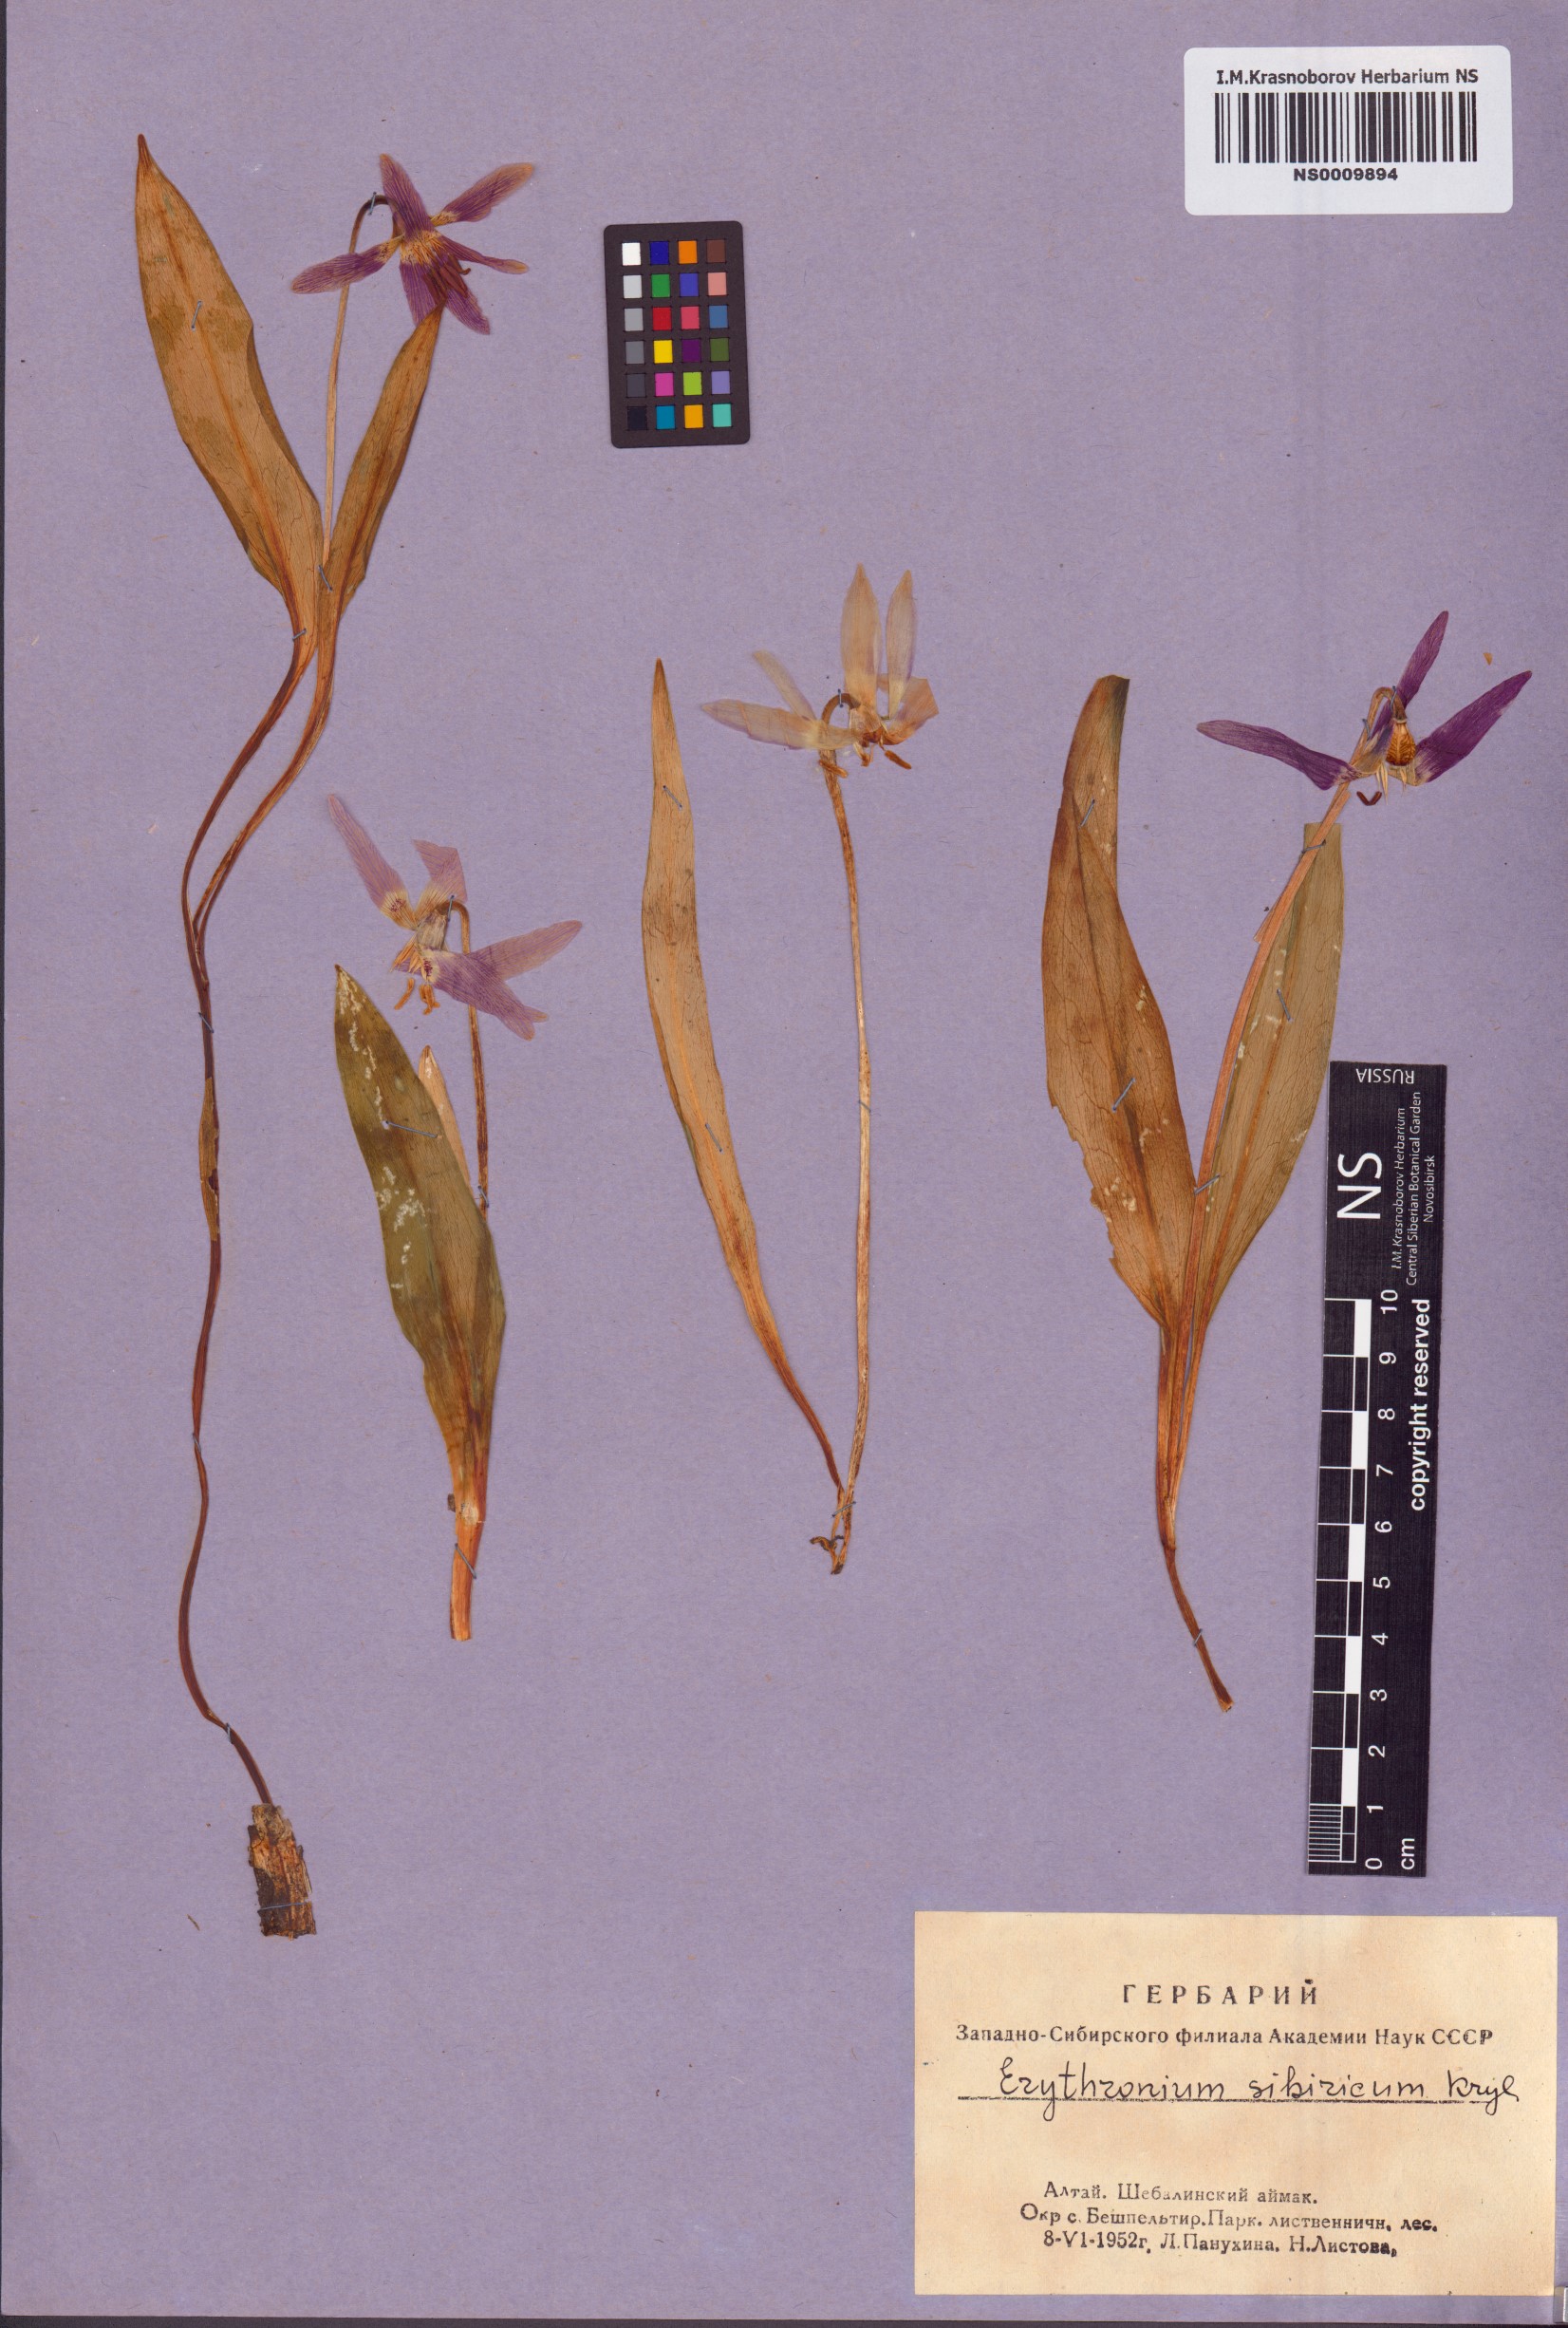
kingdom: Plantae
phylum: Tracheophyta
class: Liliopsida
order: Liliales
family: Liliaceae
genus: Erythronium
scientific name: Erythronium sibiricum
